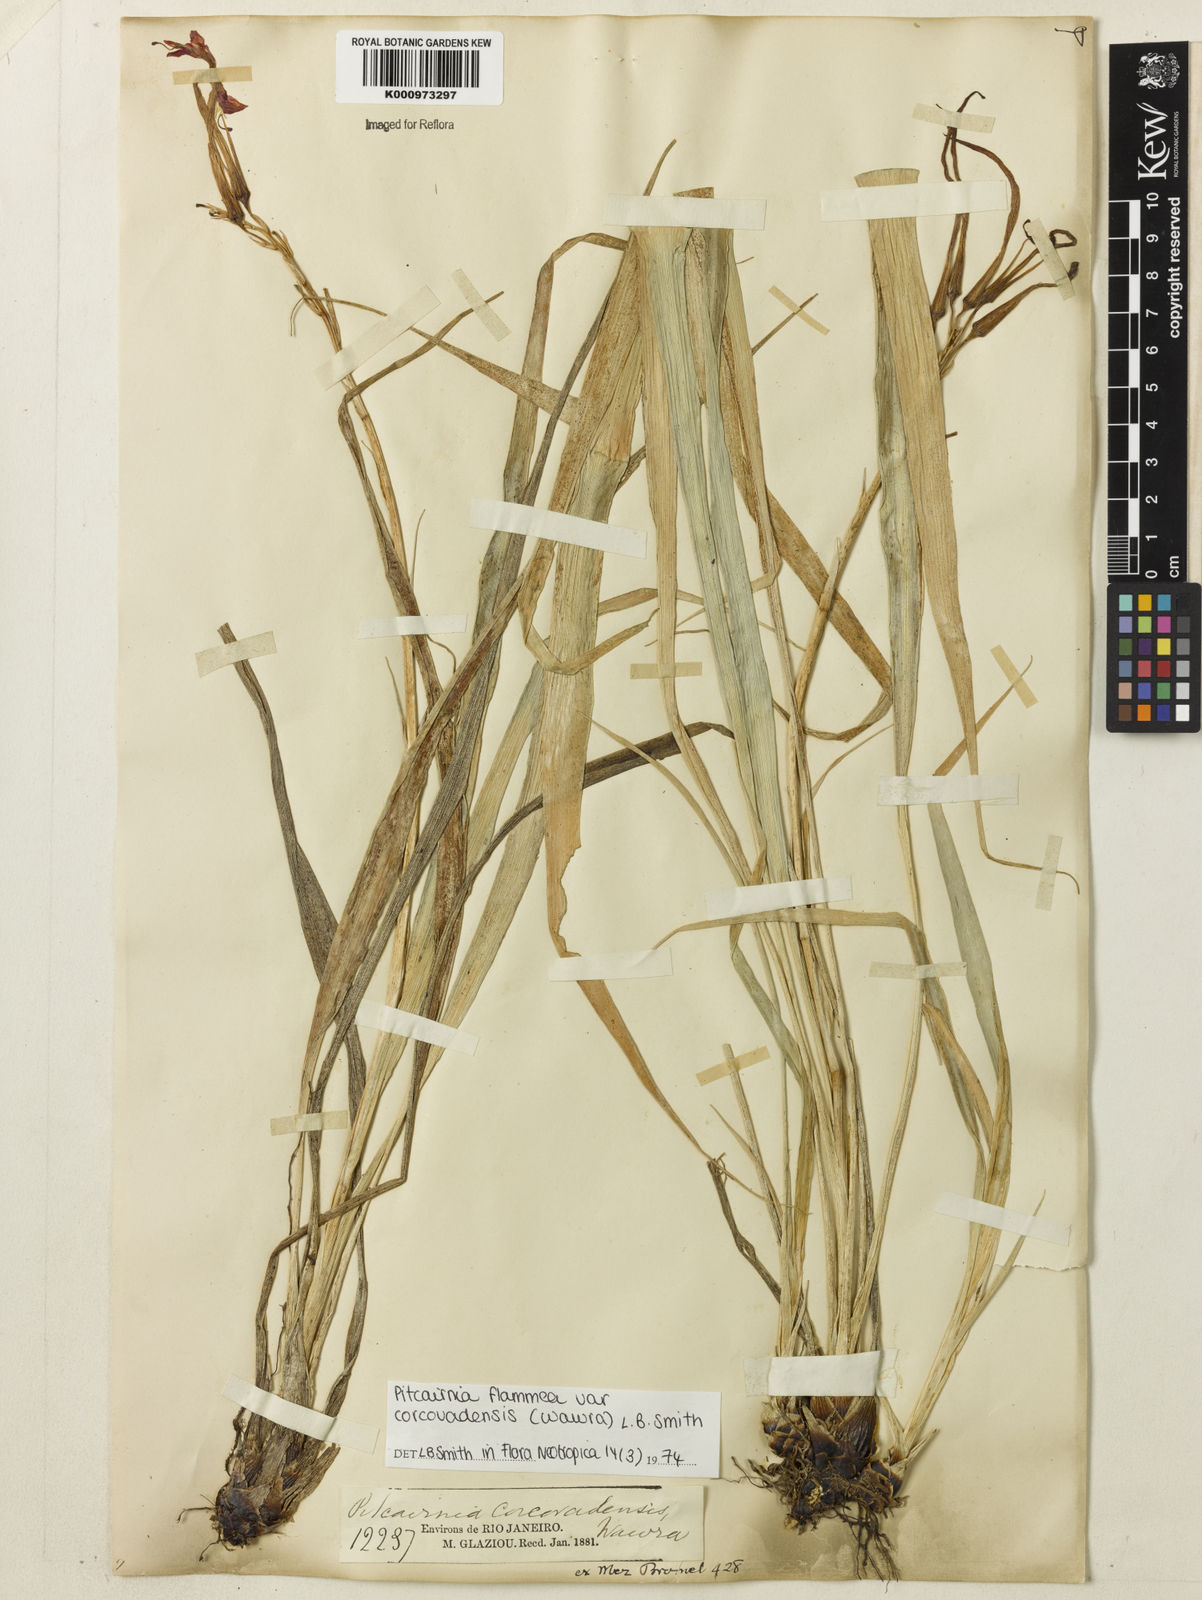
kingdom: Plantae
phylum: Tracheophyta
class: Liliopsida
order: Poales
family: Bromeliaceae
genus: Pitcairnia
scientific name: Pitcairnia corcovadensis
